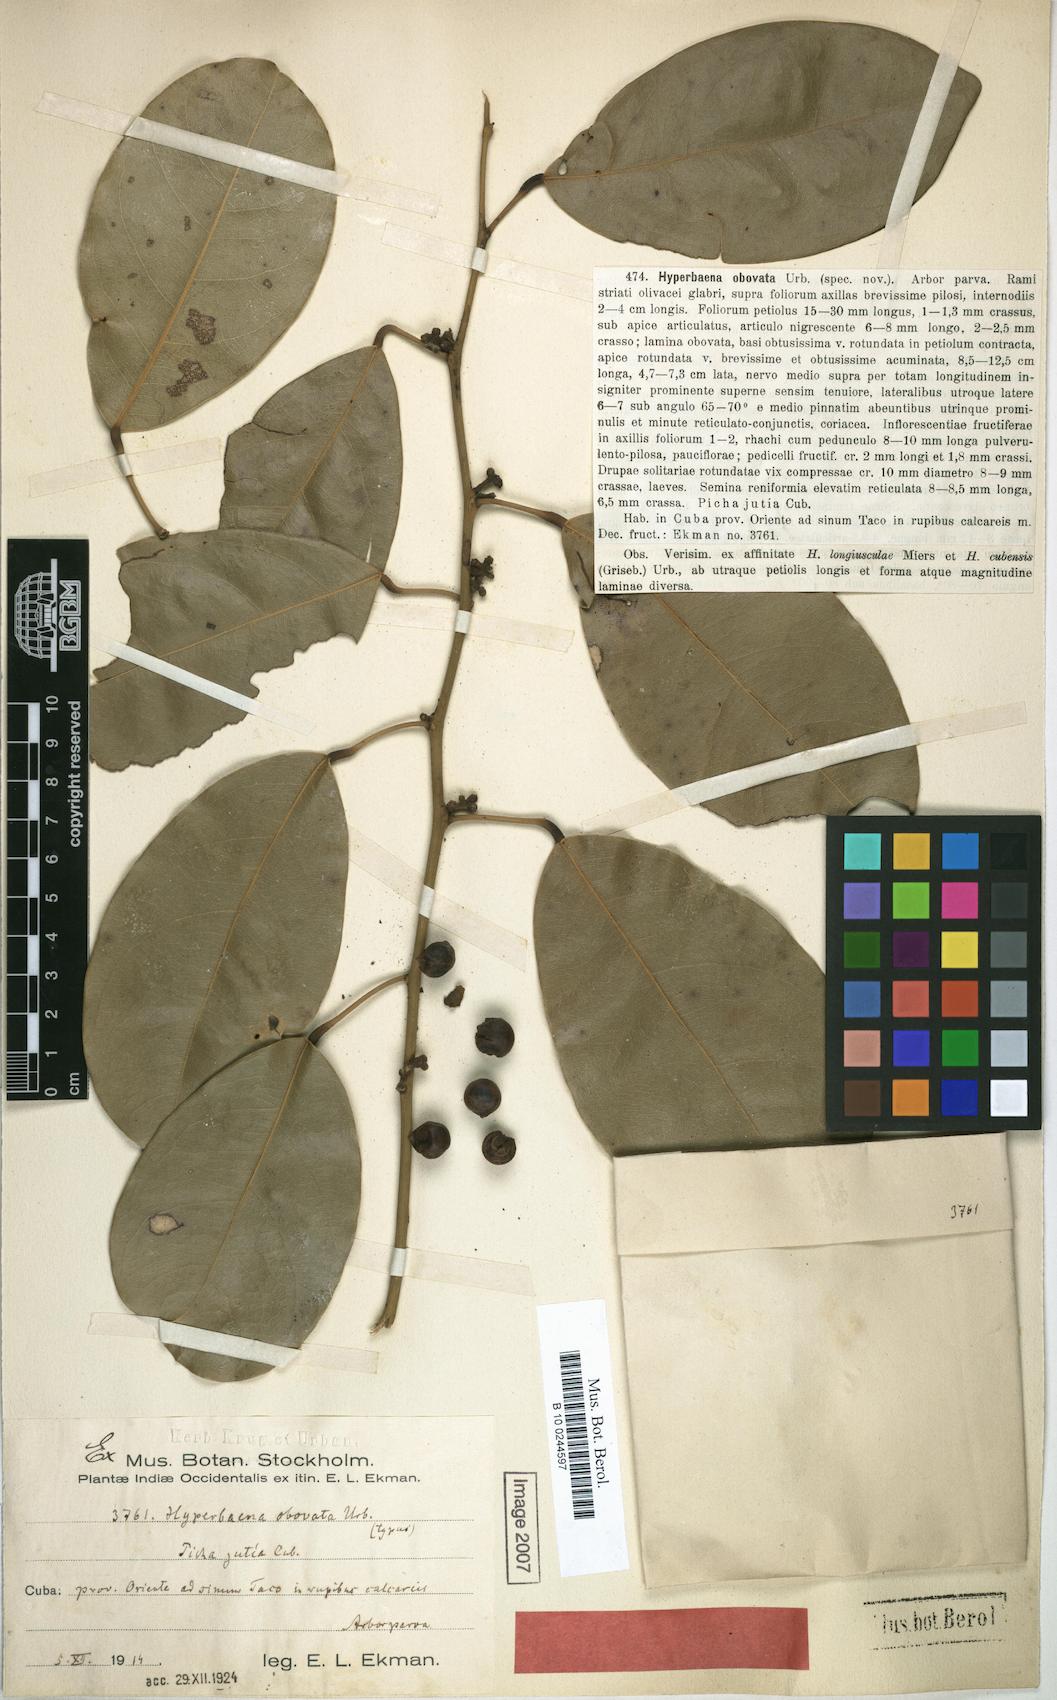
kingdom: Plantae
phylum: Tracheophyta
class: Magnoliopsida
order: Ranunculales
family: Menispermaceae
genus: Hyperbaena
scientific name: Hyperbaena axilliflora
